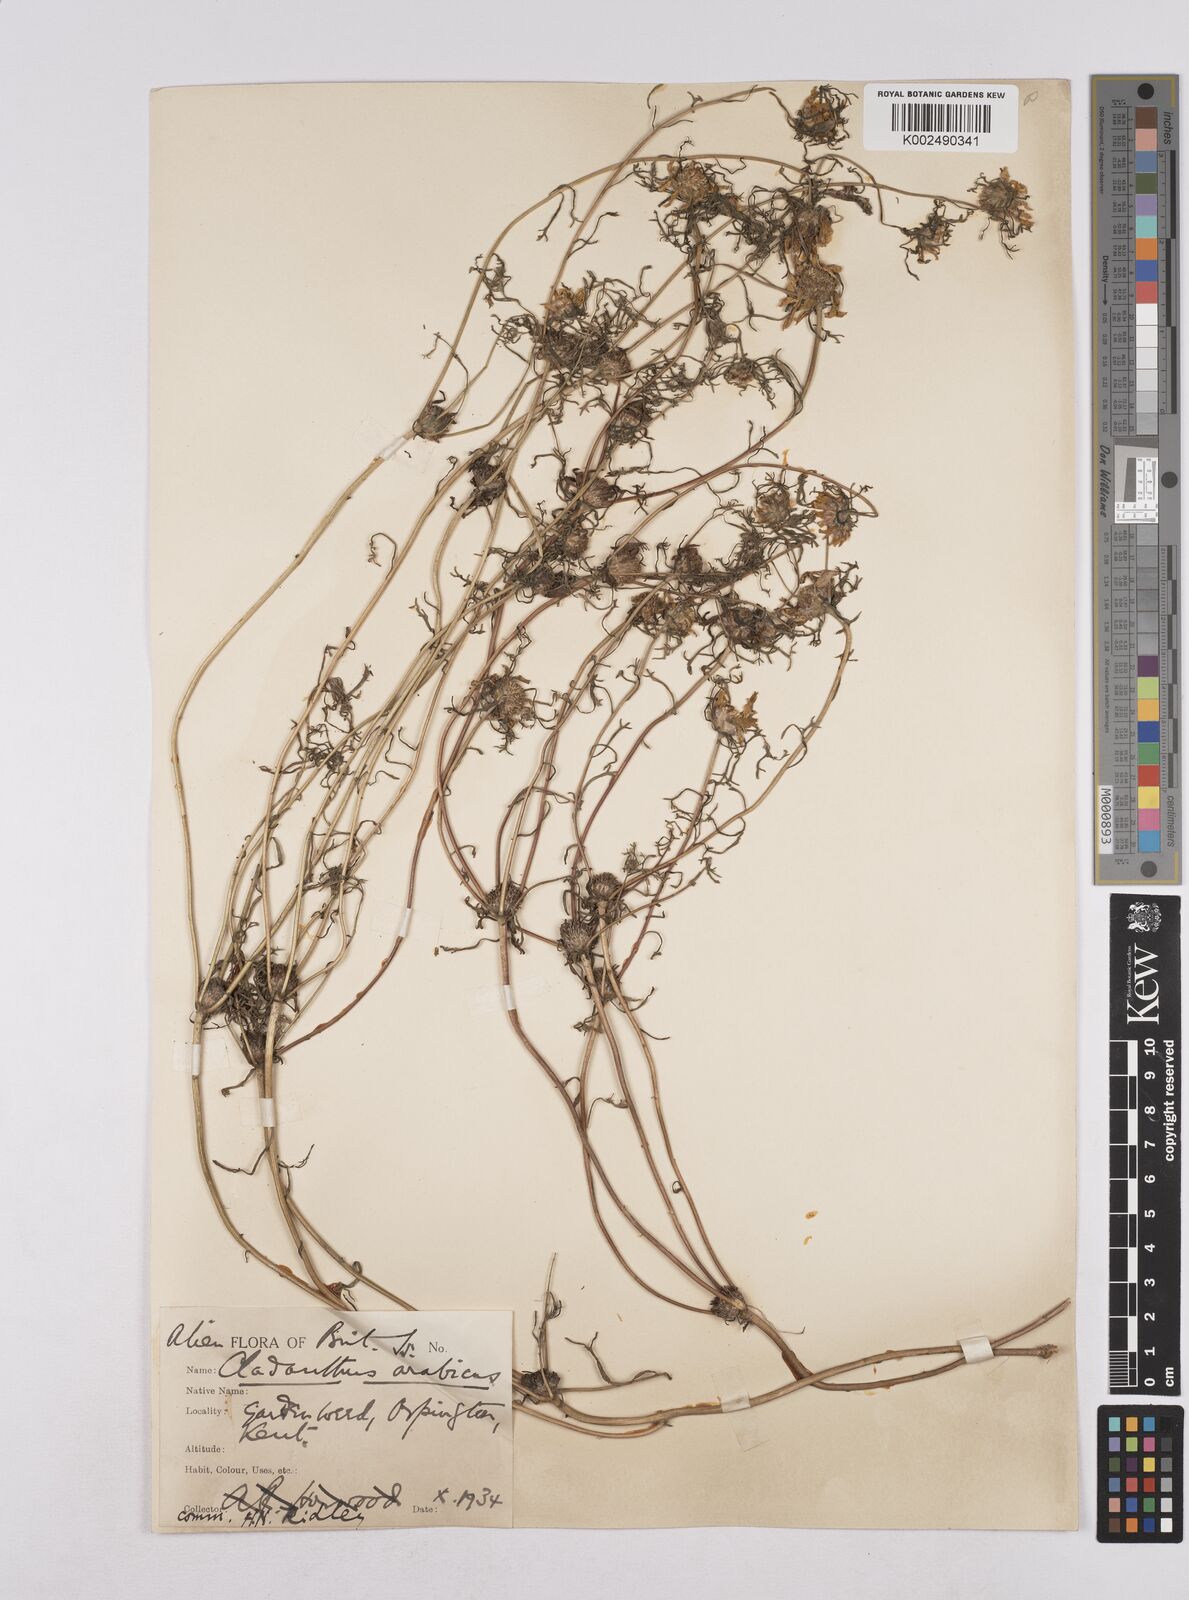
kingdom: Plantae
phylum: Tracheophyta
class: Magnoliopsida
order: Asterales
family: Asteraceae
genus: Cladanthus
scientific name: Cladanthus arabicus
